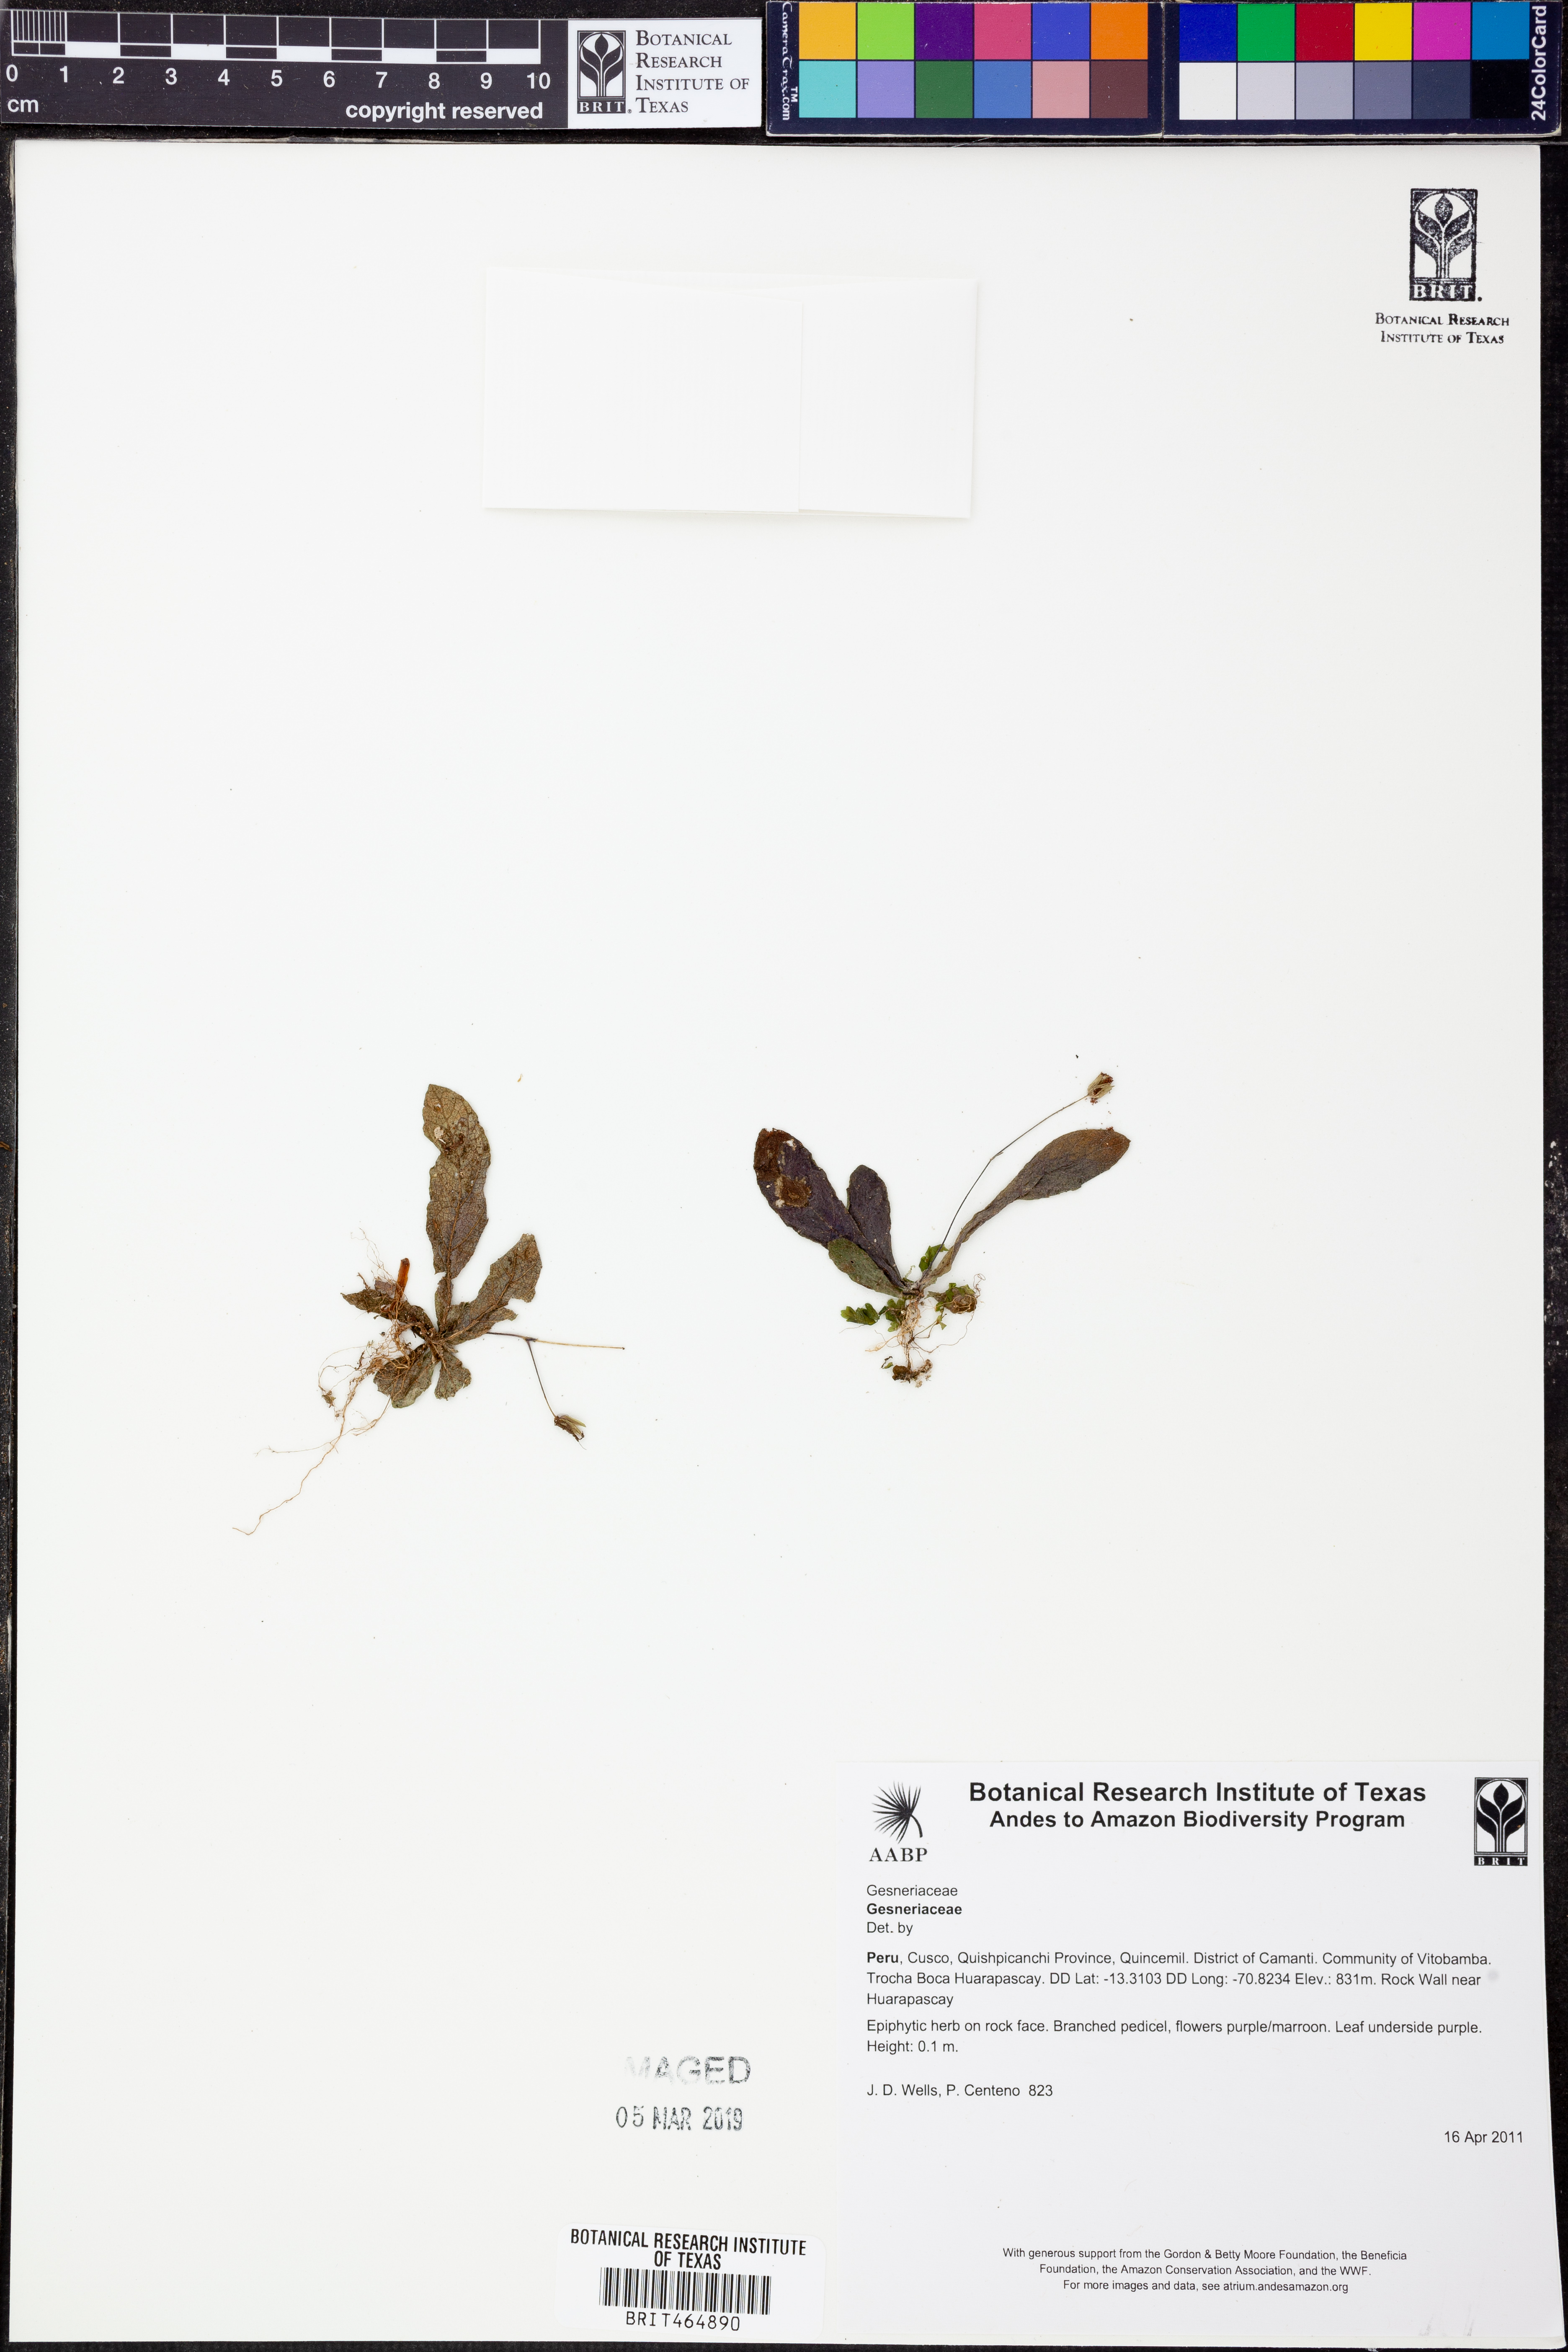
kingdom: Plantae
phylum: Tracheophyta
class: Magnoliopsida
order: Lamiales
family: Gesneriaceae
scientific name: Gesneriaceae
